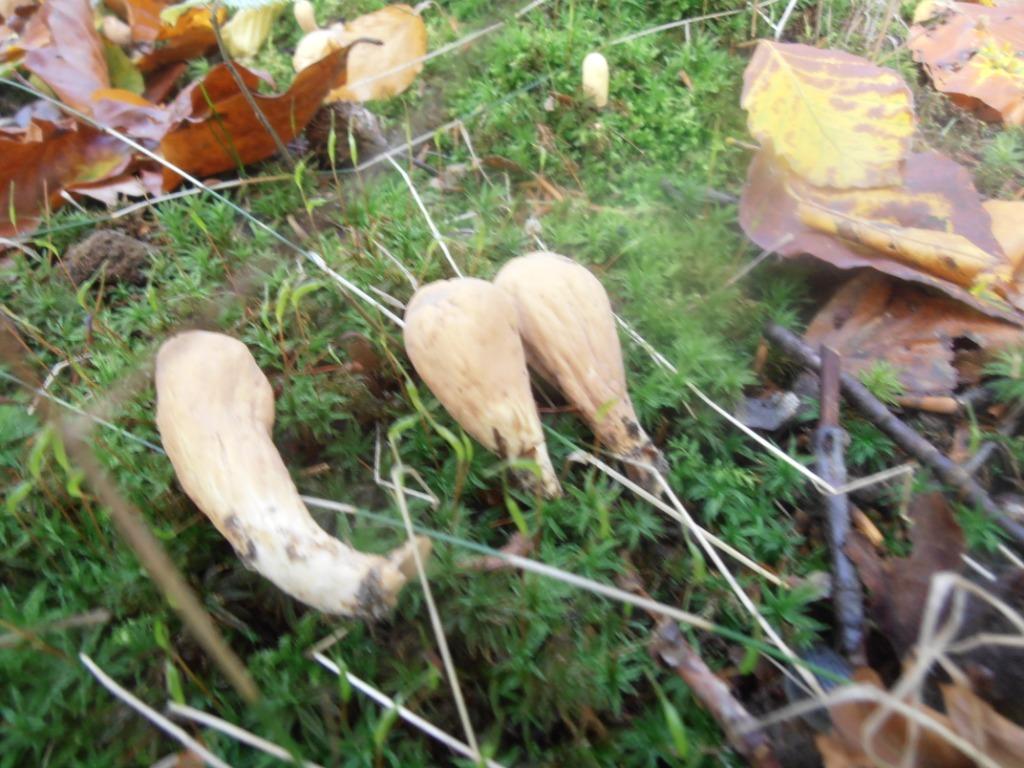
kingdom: Fungi
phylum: Basidiomycota
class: Agaricomycetes
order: Gomphales
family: Clavariadelphaceae
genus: Clavariadelphus
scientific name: Clavariadelphus pistillaris
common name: herkules-kæmpekølle
